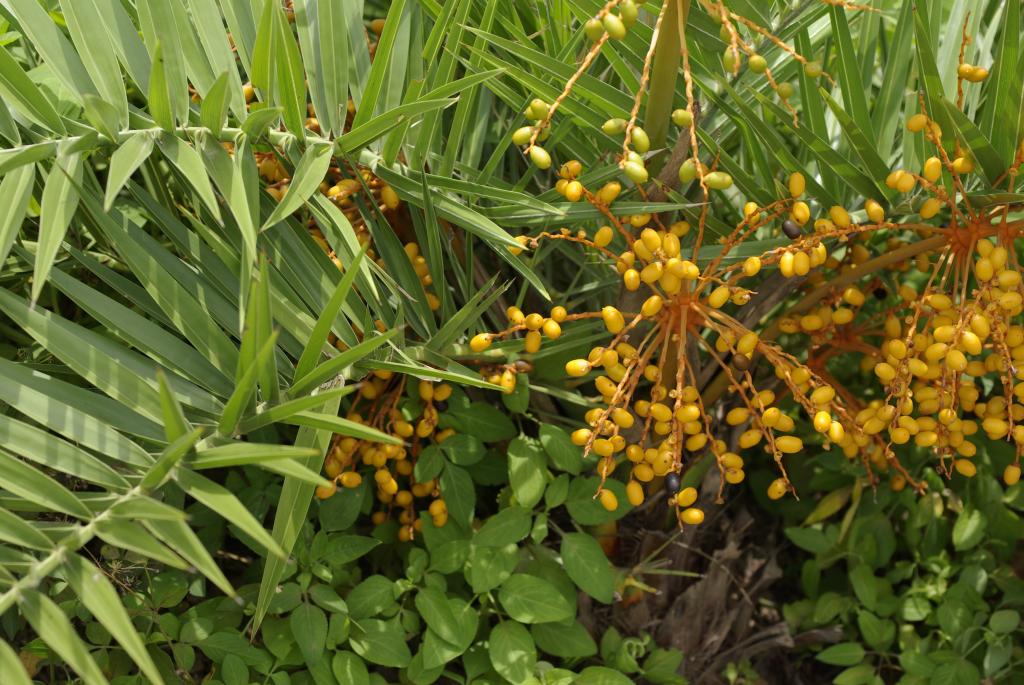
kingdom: Plantae
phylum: Tracheophyta
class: Liliopsida
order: Arecales
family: Arecaceae
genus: Phoenix
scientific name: Phoenix loureiroi
